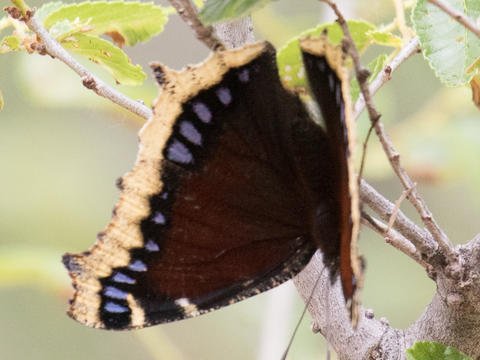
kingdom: Animalia
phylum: Arthropoda
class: Insecta
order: Lepidoptera
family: Nymphalidae
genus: Nymphalis
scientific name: Nymphalis antiopa
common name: Mourning Cloak
